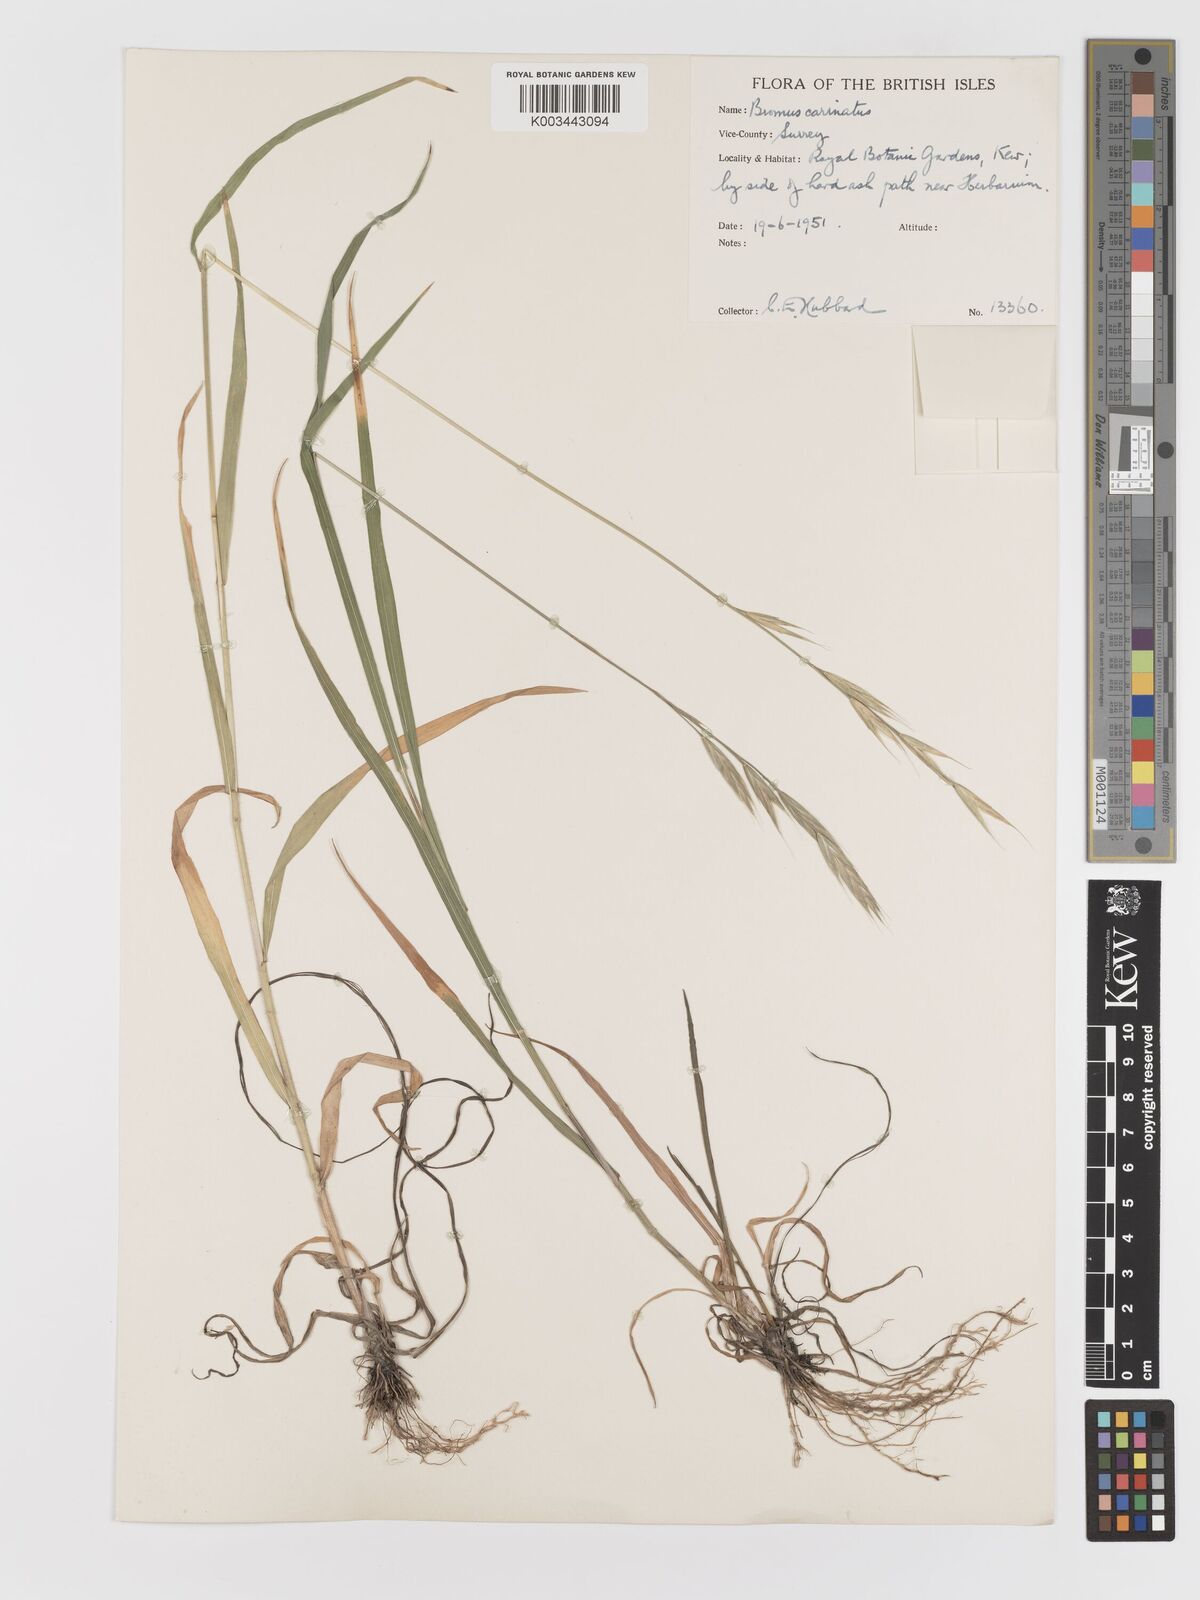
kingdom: Plantae
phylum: Tracheophyta
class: Liliopsida
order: Poales
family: Poaceae
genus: Bromus
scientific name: Bromus carinatus
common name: Mountain brome
